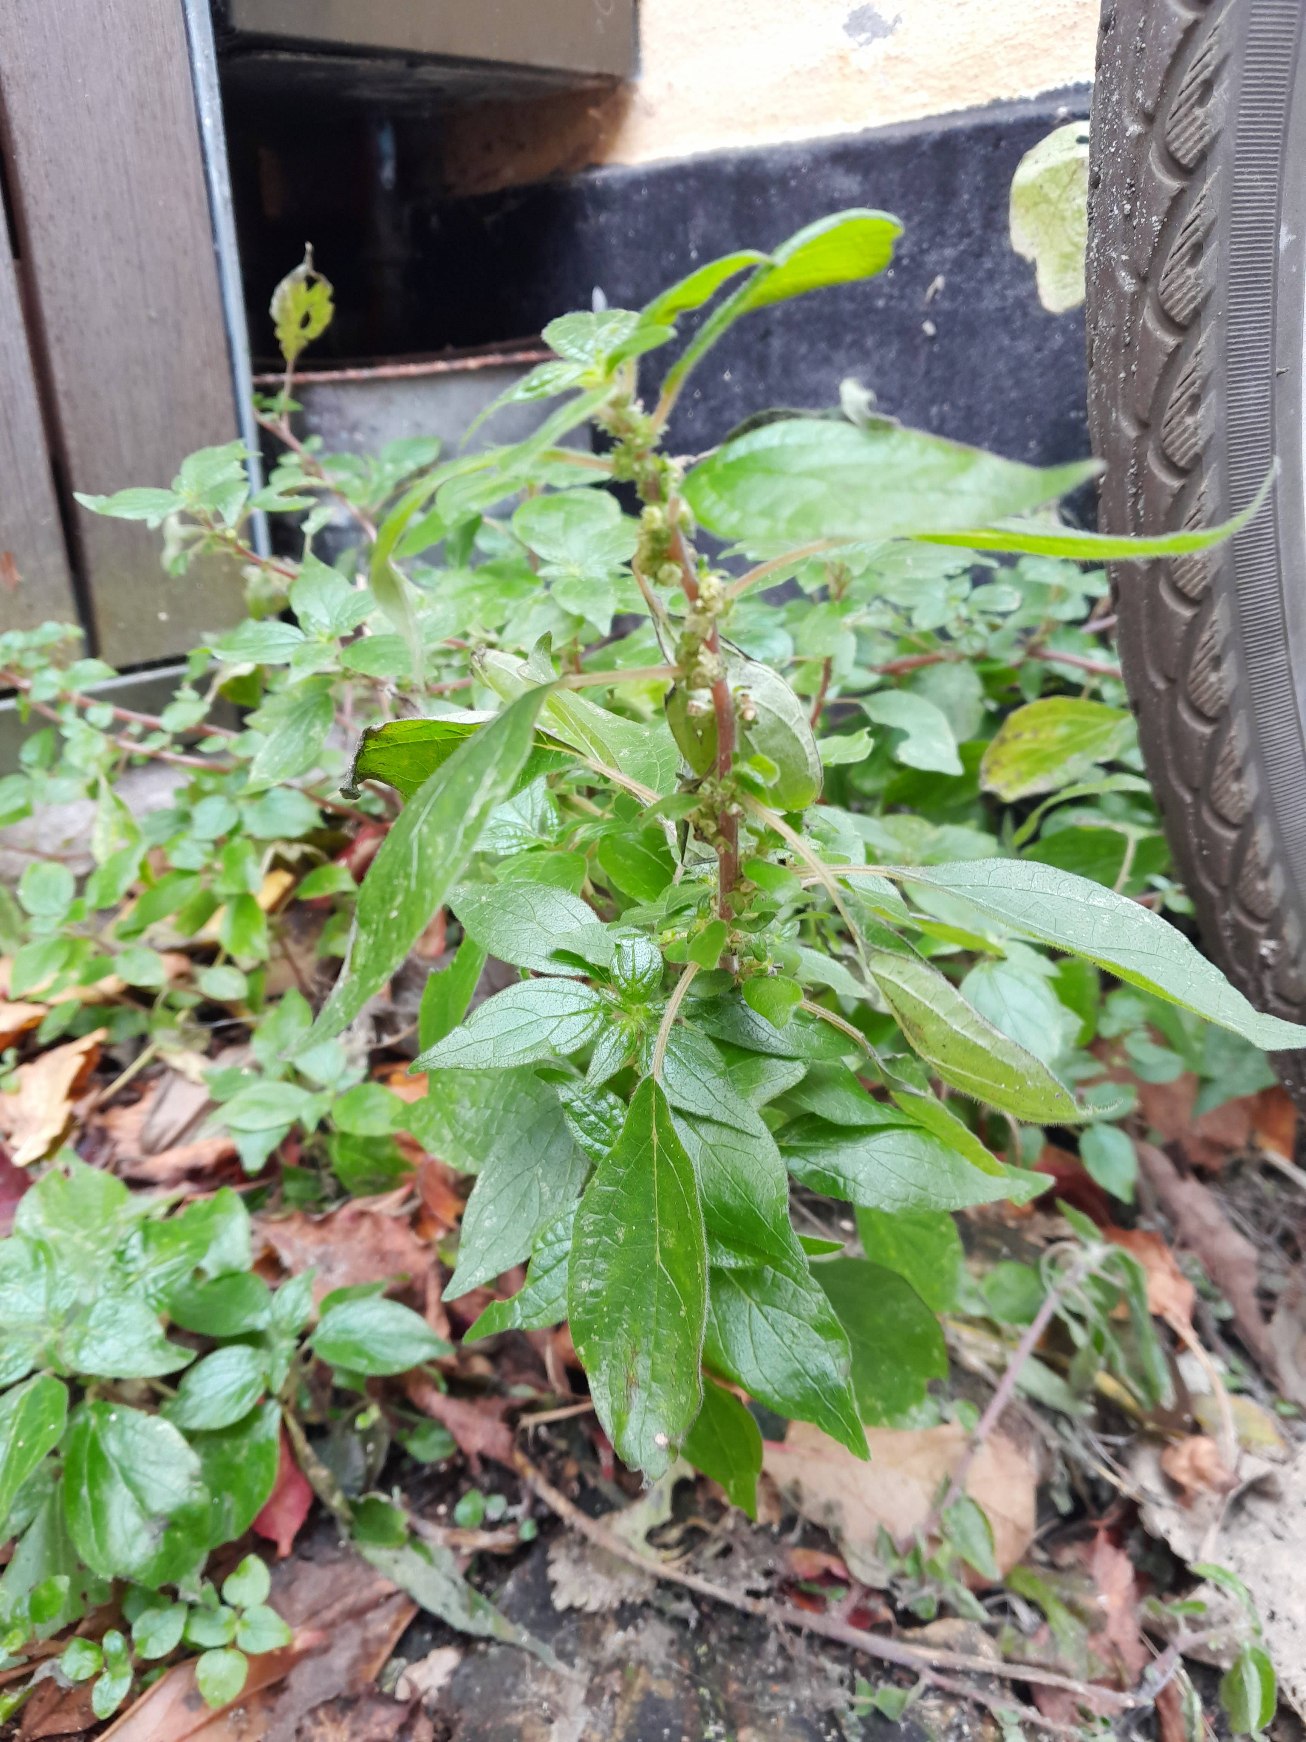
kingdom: Plantae
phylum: Tracheophyta
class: Magnoliopsida
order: Rosales
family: Urticaceae
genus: Parietaria
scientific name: Parietaria judaica
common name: Nedliggende springknap
